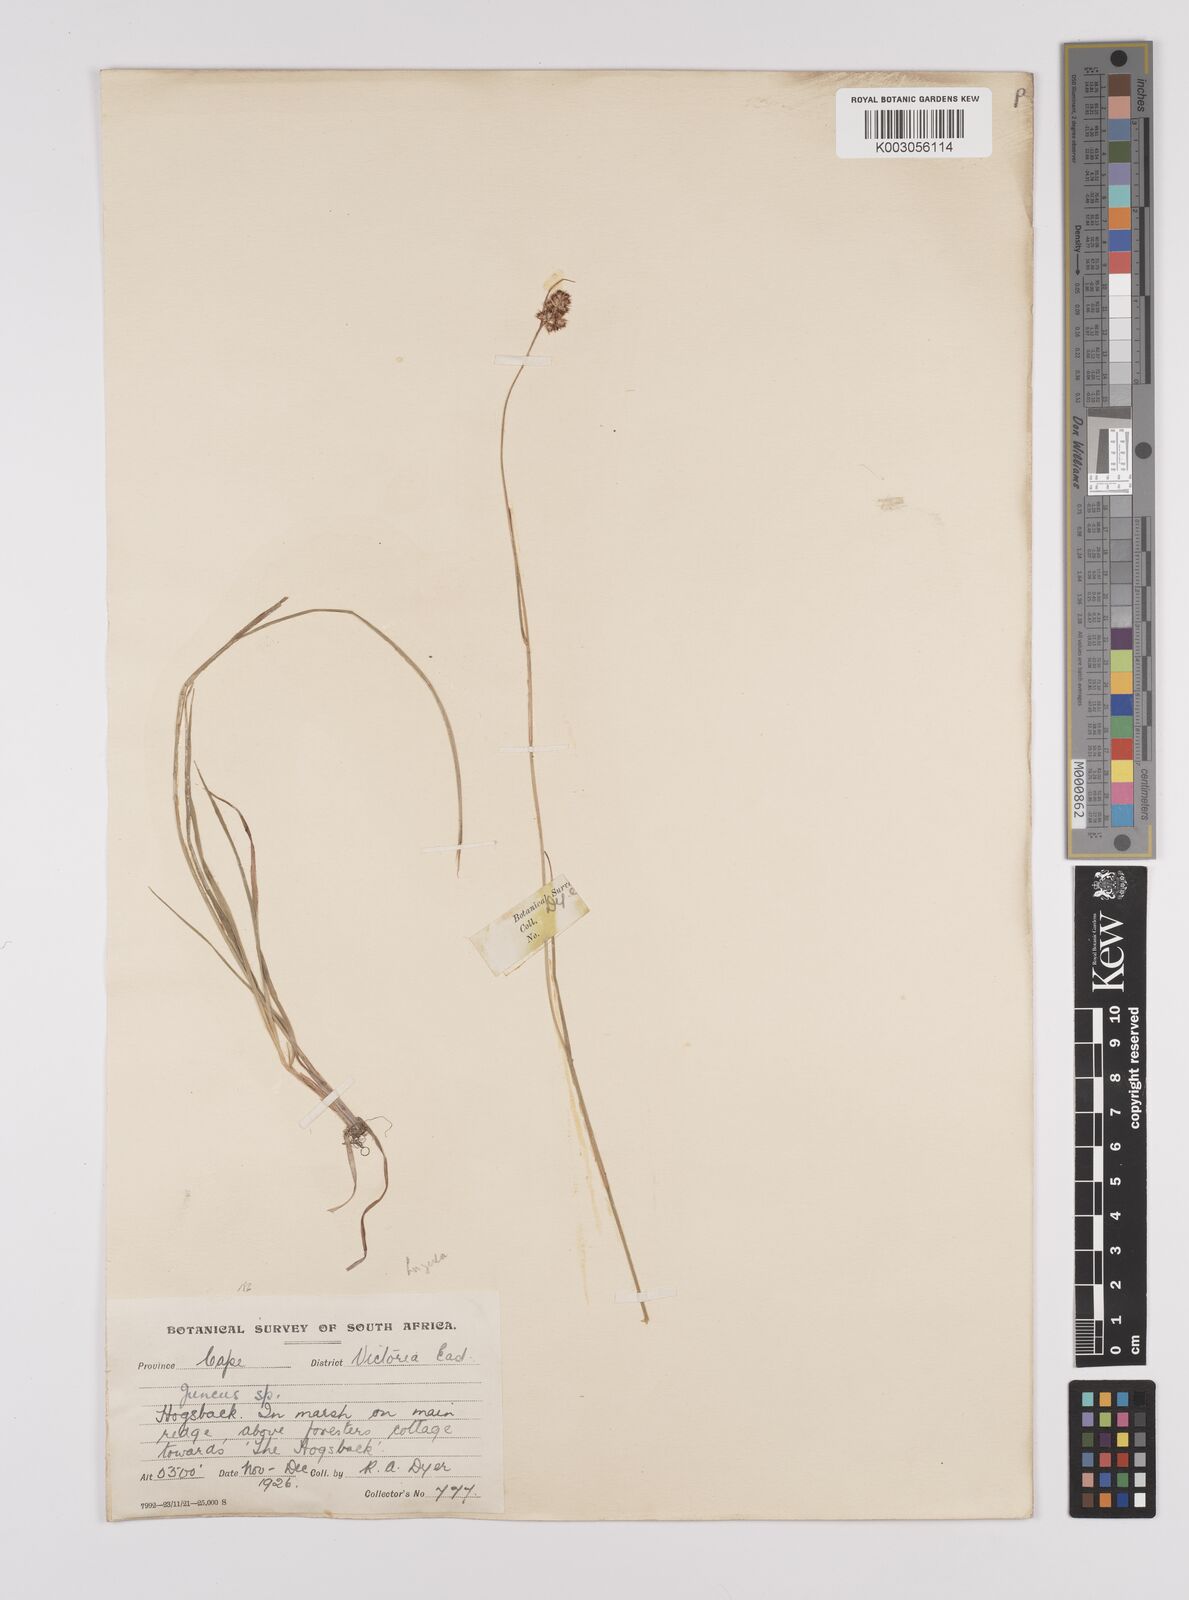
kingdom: Plantae
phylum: Tracheophyta
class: Liliopsida
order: Poales
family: Juncaceae
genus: Juncus
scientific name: Juncus
